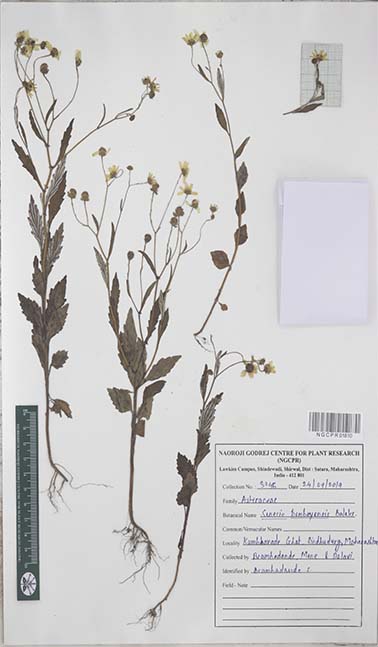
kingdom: Plantae
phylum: Tracheophyta
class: Magnoliopsida
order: Asterales
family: Asteraceae
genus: Senecio
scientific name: Senecio bombayensis
